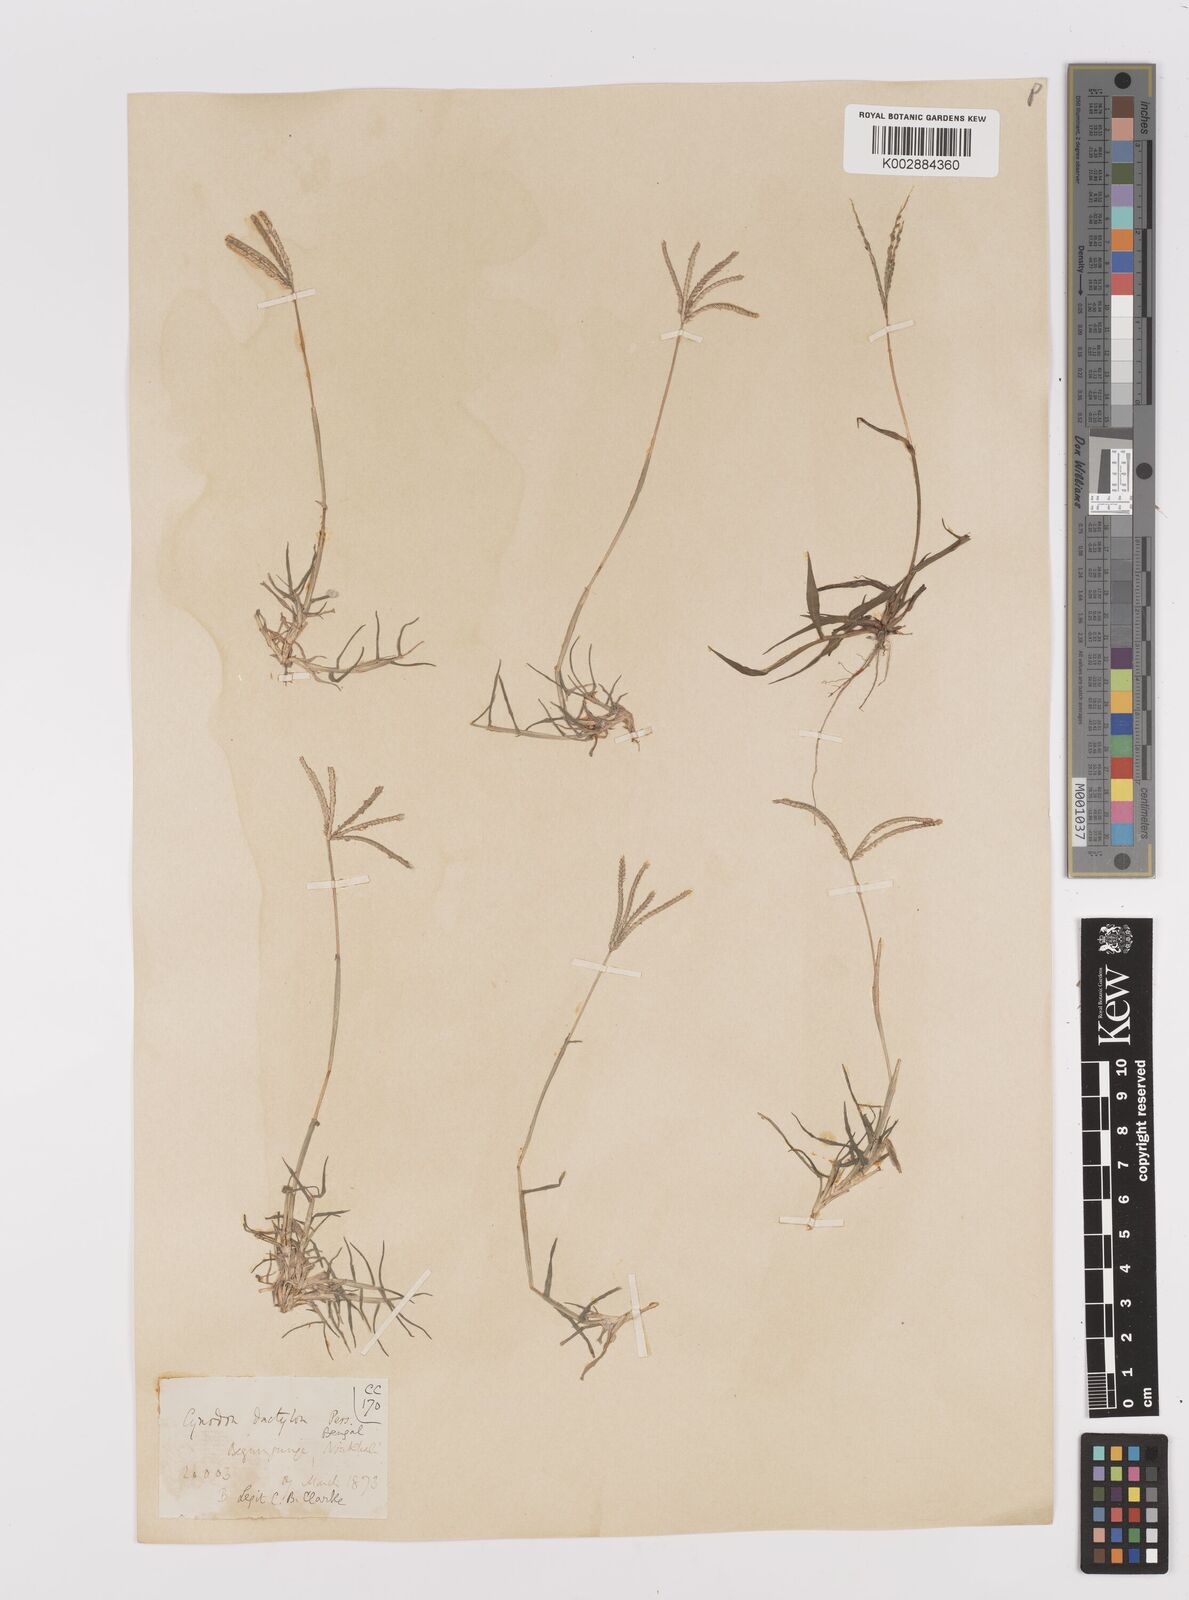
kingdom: Plantae
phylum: Tracheophyta
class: Liliopsida
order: Poales
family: Poaceae
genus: Cynodon
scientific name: Cynodon dactylon
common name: Bermuda grass
